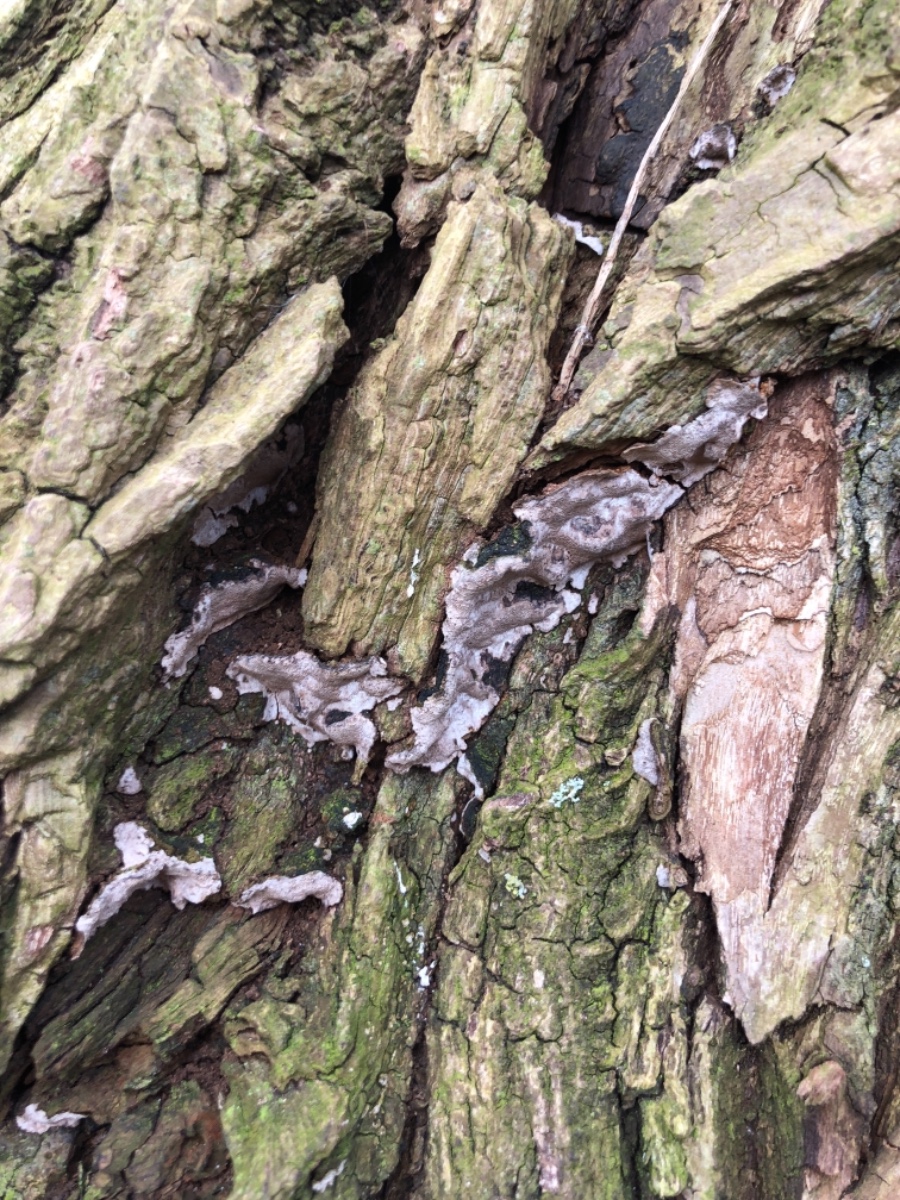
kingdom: Fungi
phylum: Basidiomycota
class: Agaricomycetes
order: Hymenochaetales
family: Hymenochaetaceae
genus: Phellinopsis
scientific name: Phellinopsis conchata
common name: pile-ildporesvamp
